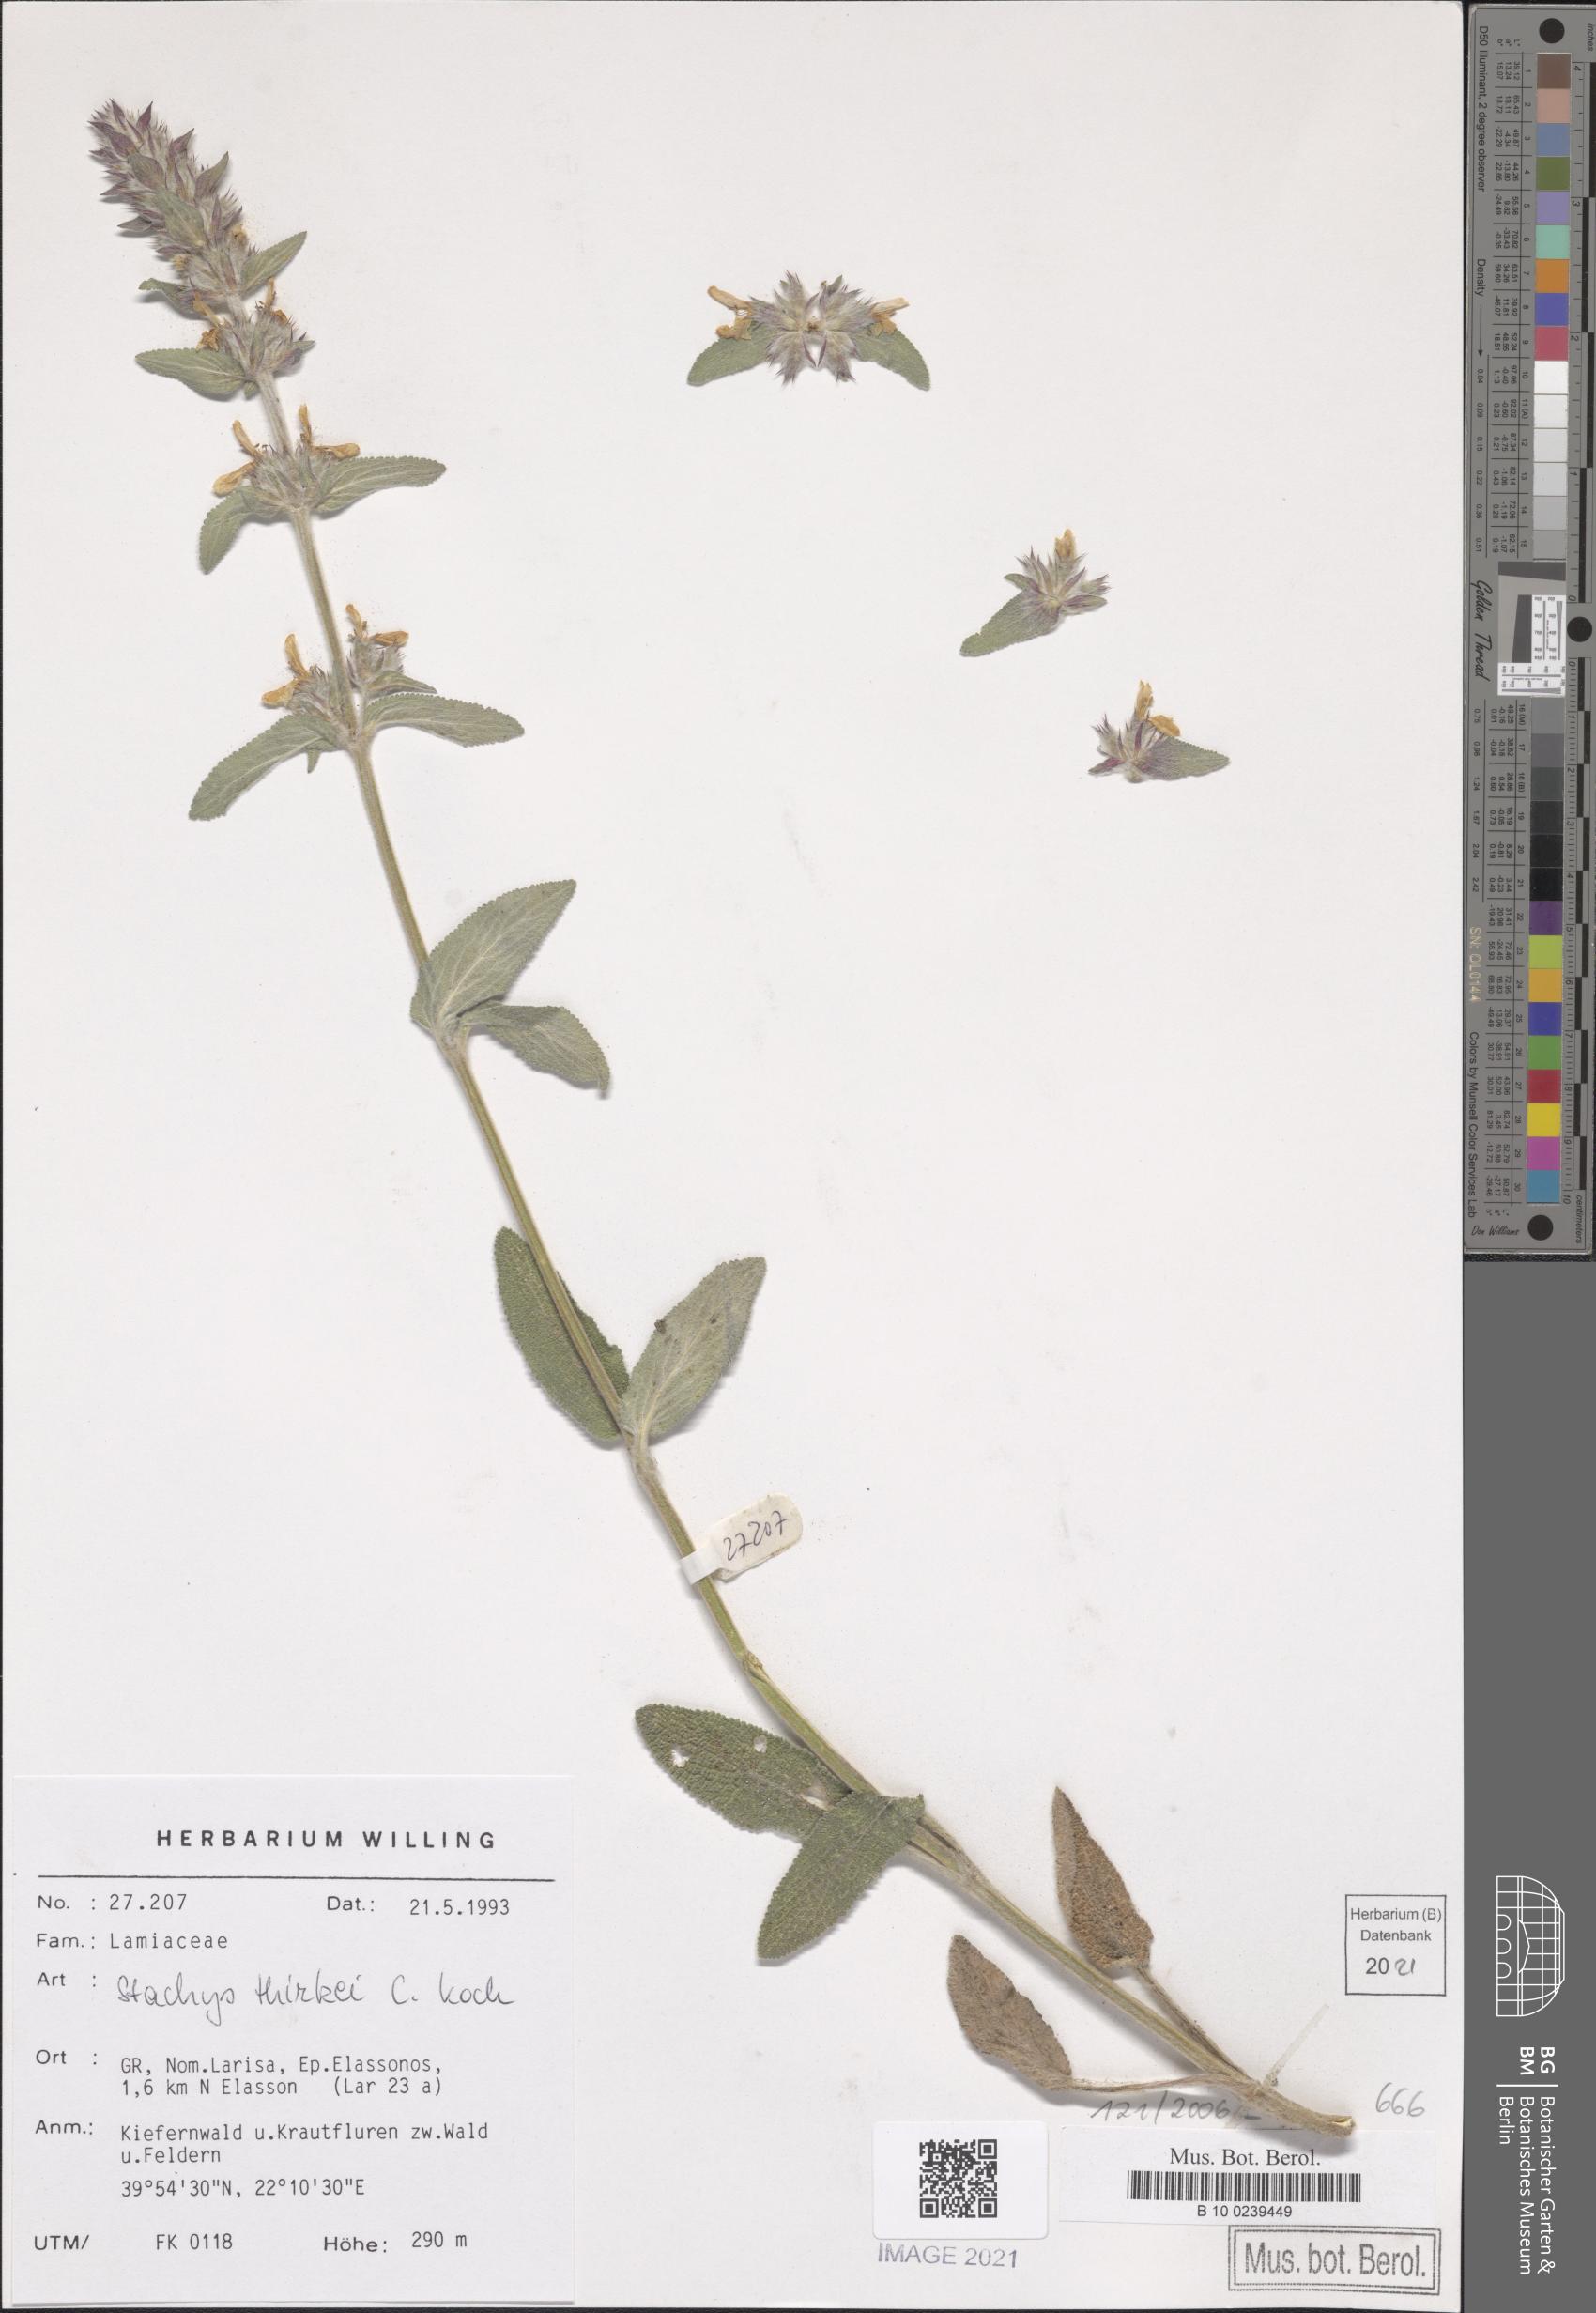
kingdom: Plantae
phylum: Tracheophyta
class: Magnoliopsida
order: Lamiales
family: Lamiaceae
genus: Stachys
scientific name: Stachys thirkei
